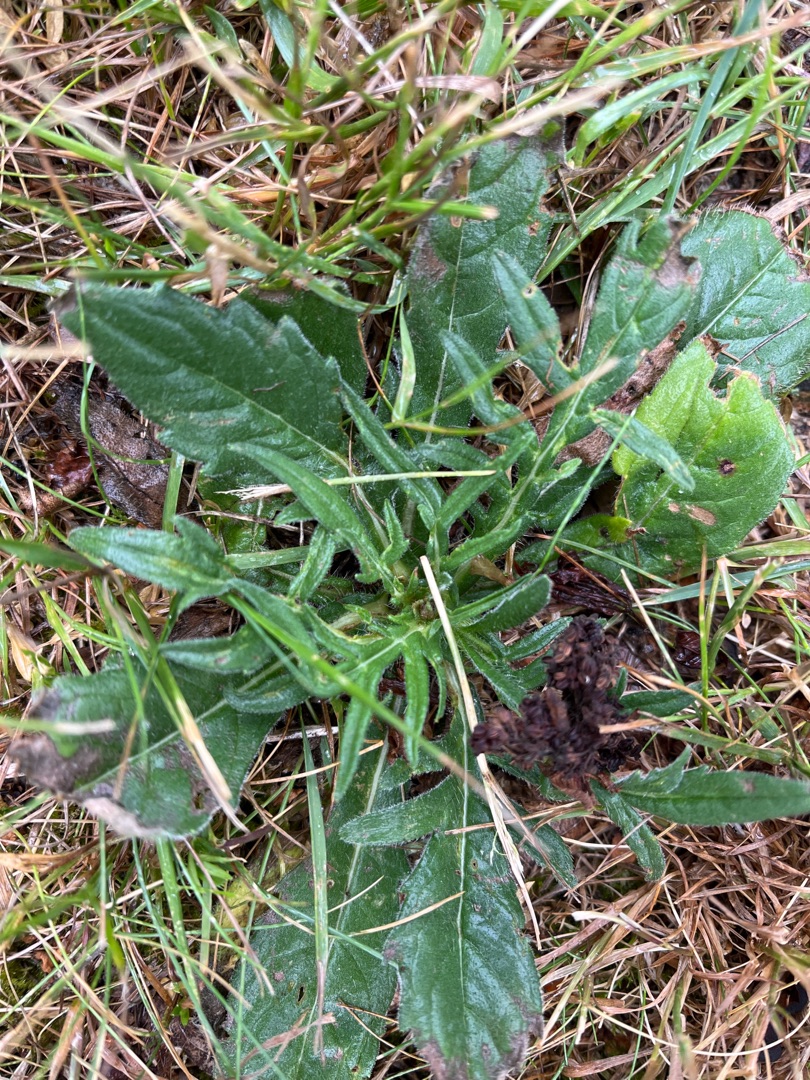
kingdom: Plantae
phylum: Tracheophyta
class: Magnoliopsida
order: Dipsacales
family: Caprifoliaceae
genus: Knautia
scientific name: Knautia arvensis
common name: Blåhat
